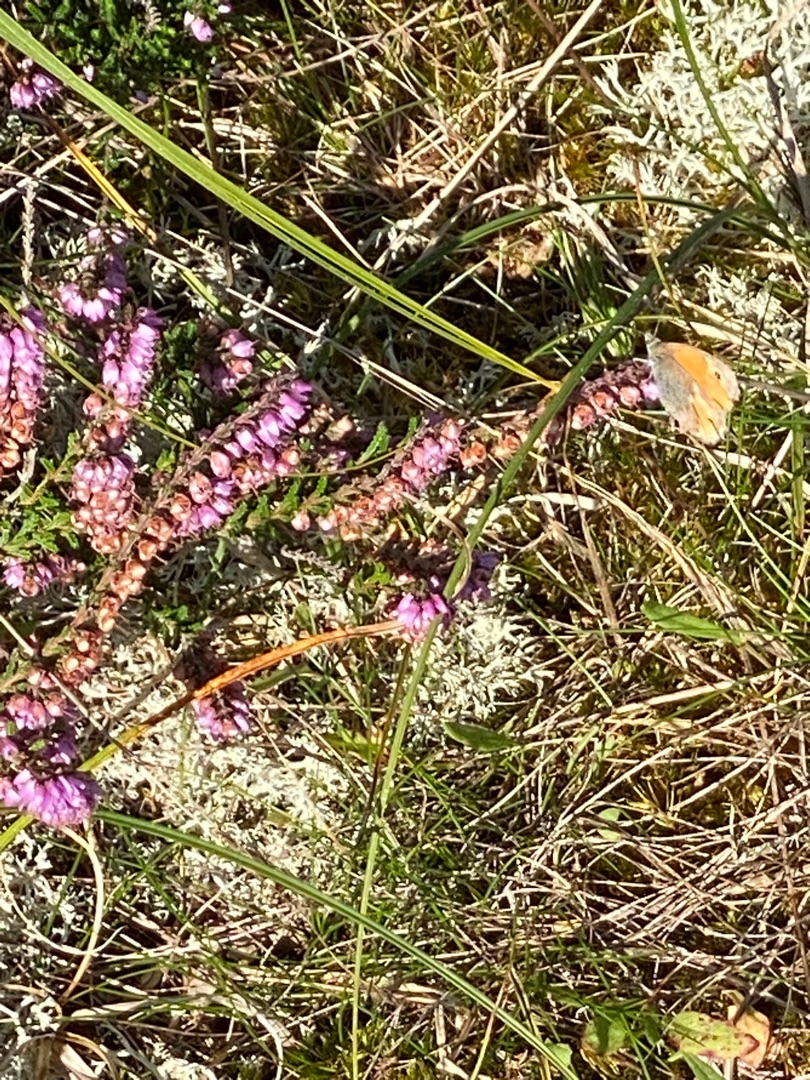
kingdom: Animalia
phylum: Arthropoda
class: Insecta
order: Lepidoptera
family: Nymphalidae
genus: Coenonympha
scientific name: Coenonympha pamphilus
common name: Okkergul randøje
